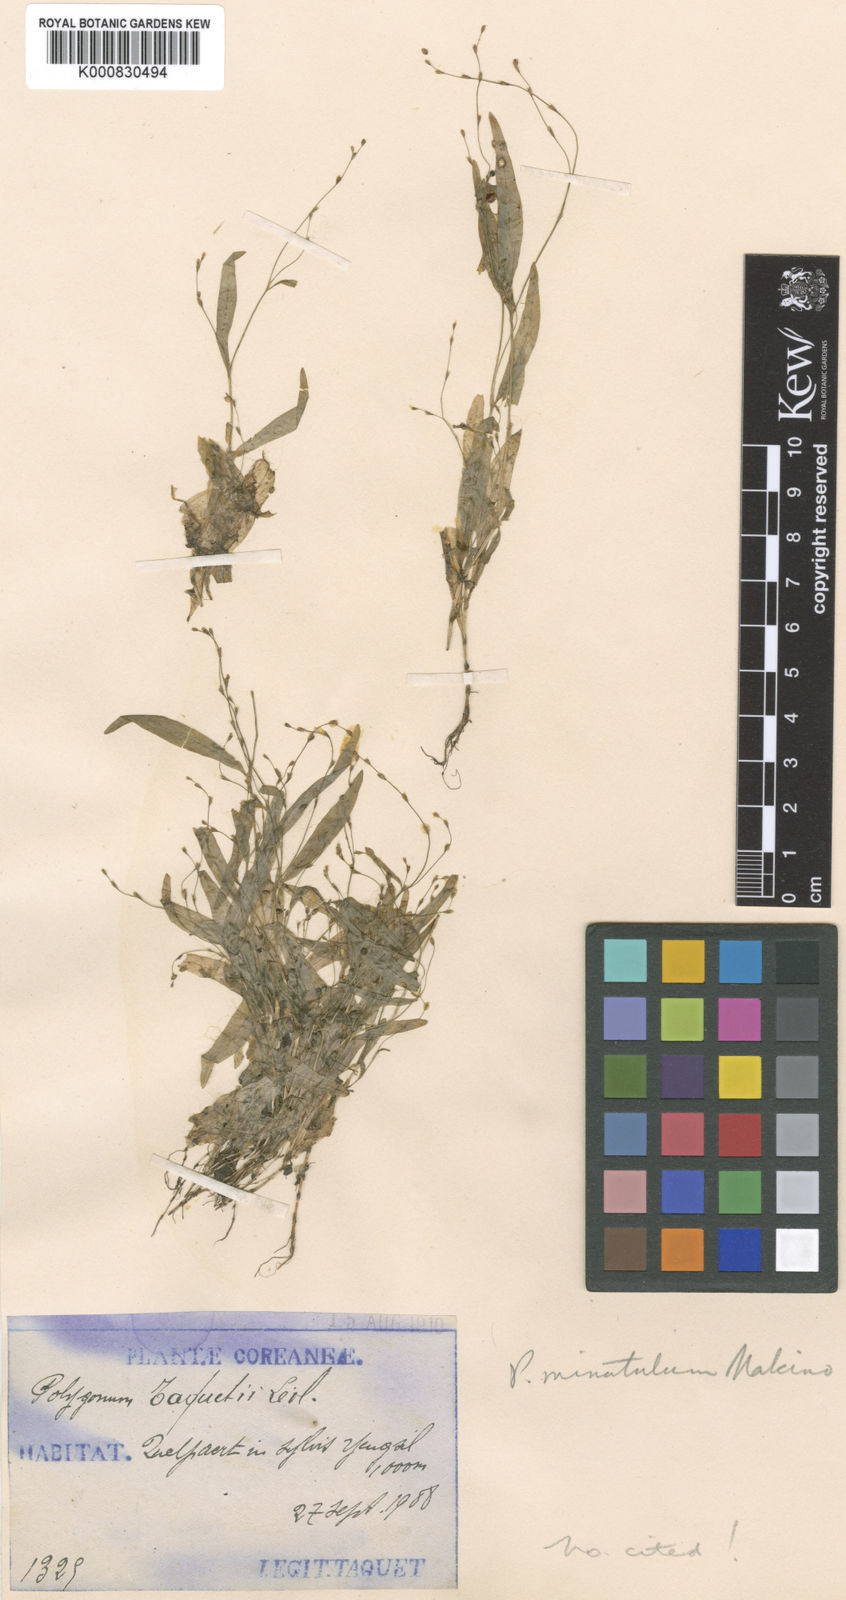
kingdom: Plantae
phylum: Tracheophyta
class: Magnoliopsida
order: Caryophyllales
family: Polygonaceae
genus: Persicaria
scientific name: Persicaria taquetii
